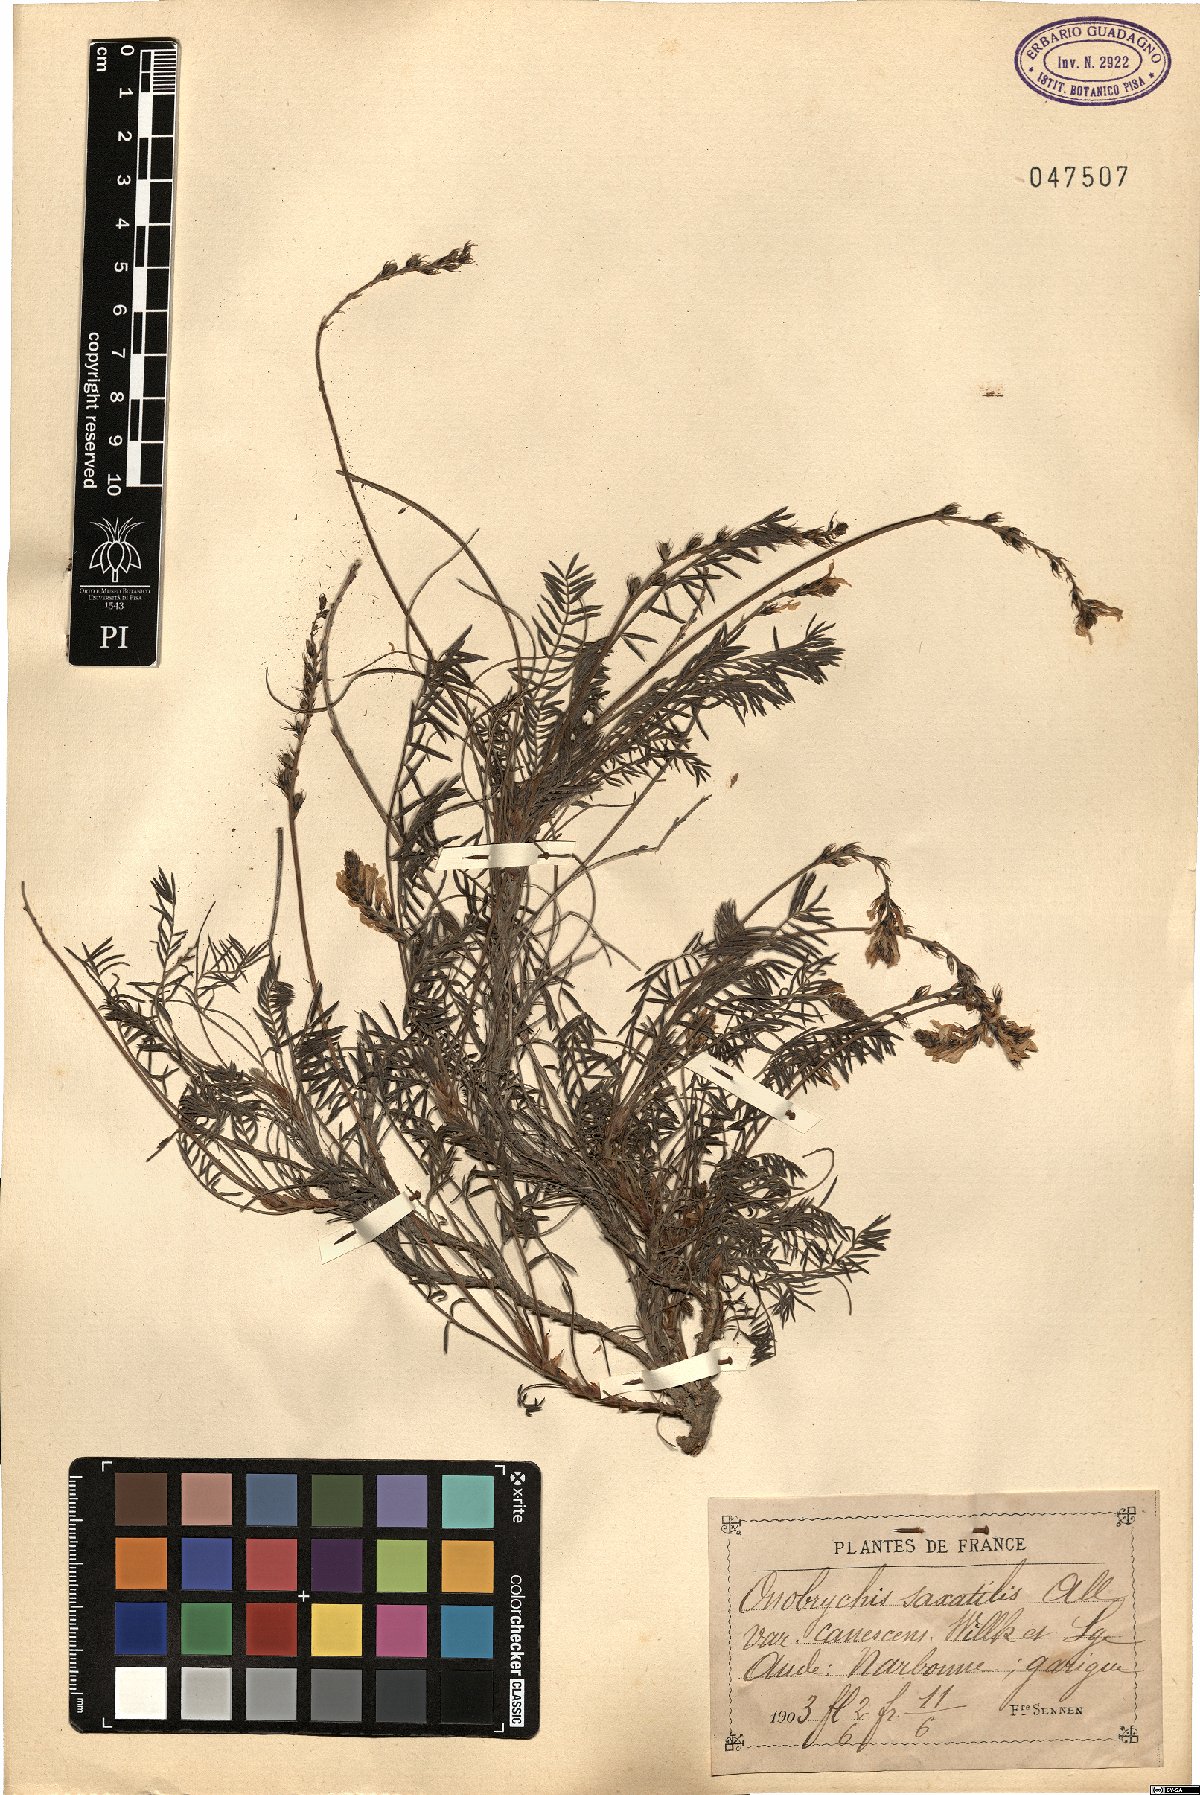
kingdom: Plantae
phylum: Tracheophyta
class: Magnoliopsida
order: Fabales
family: Fabaceae
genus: Onobrychis
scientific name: Onobrychis saxatilis
